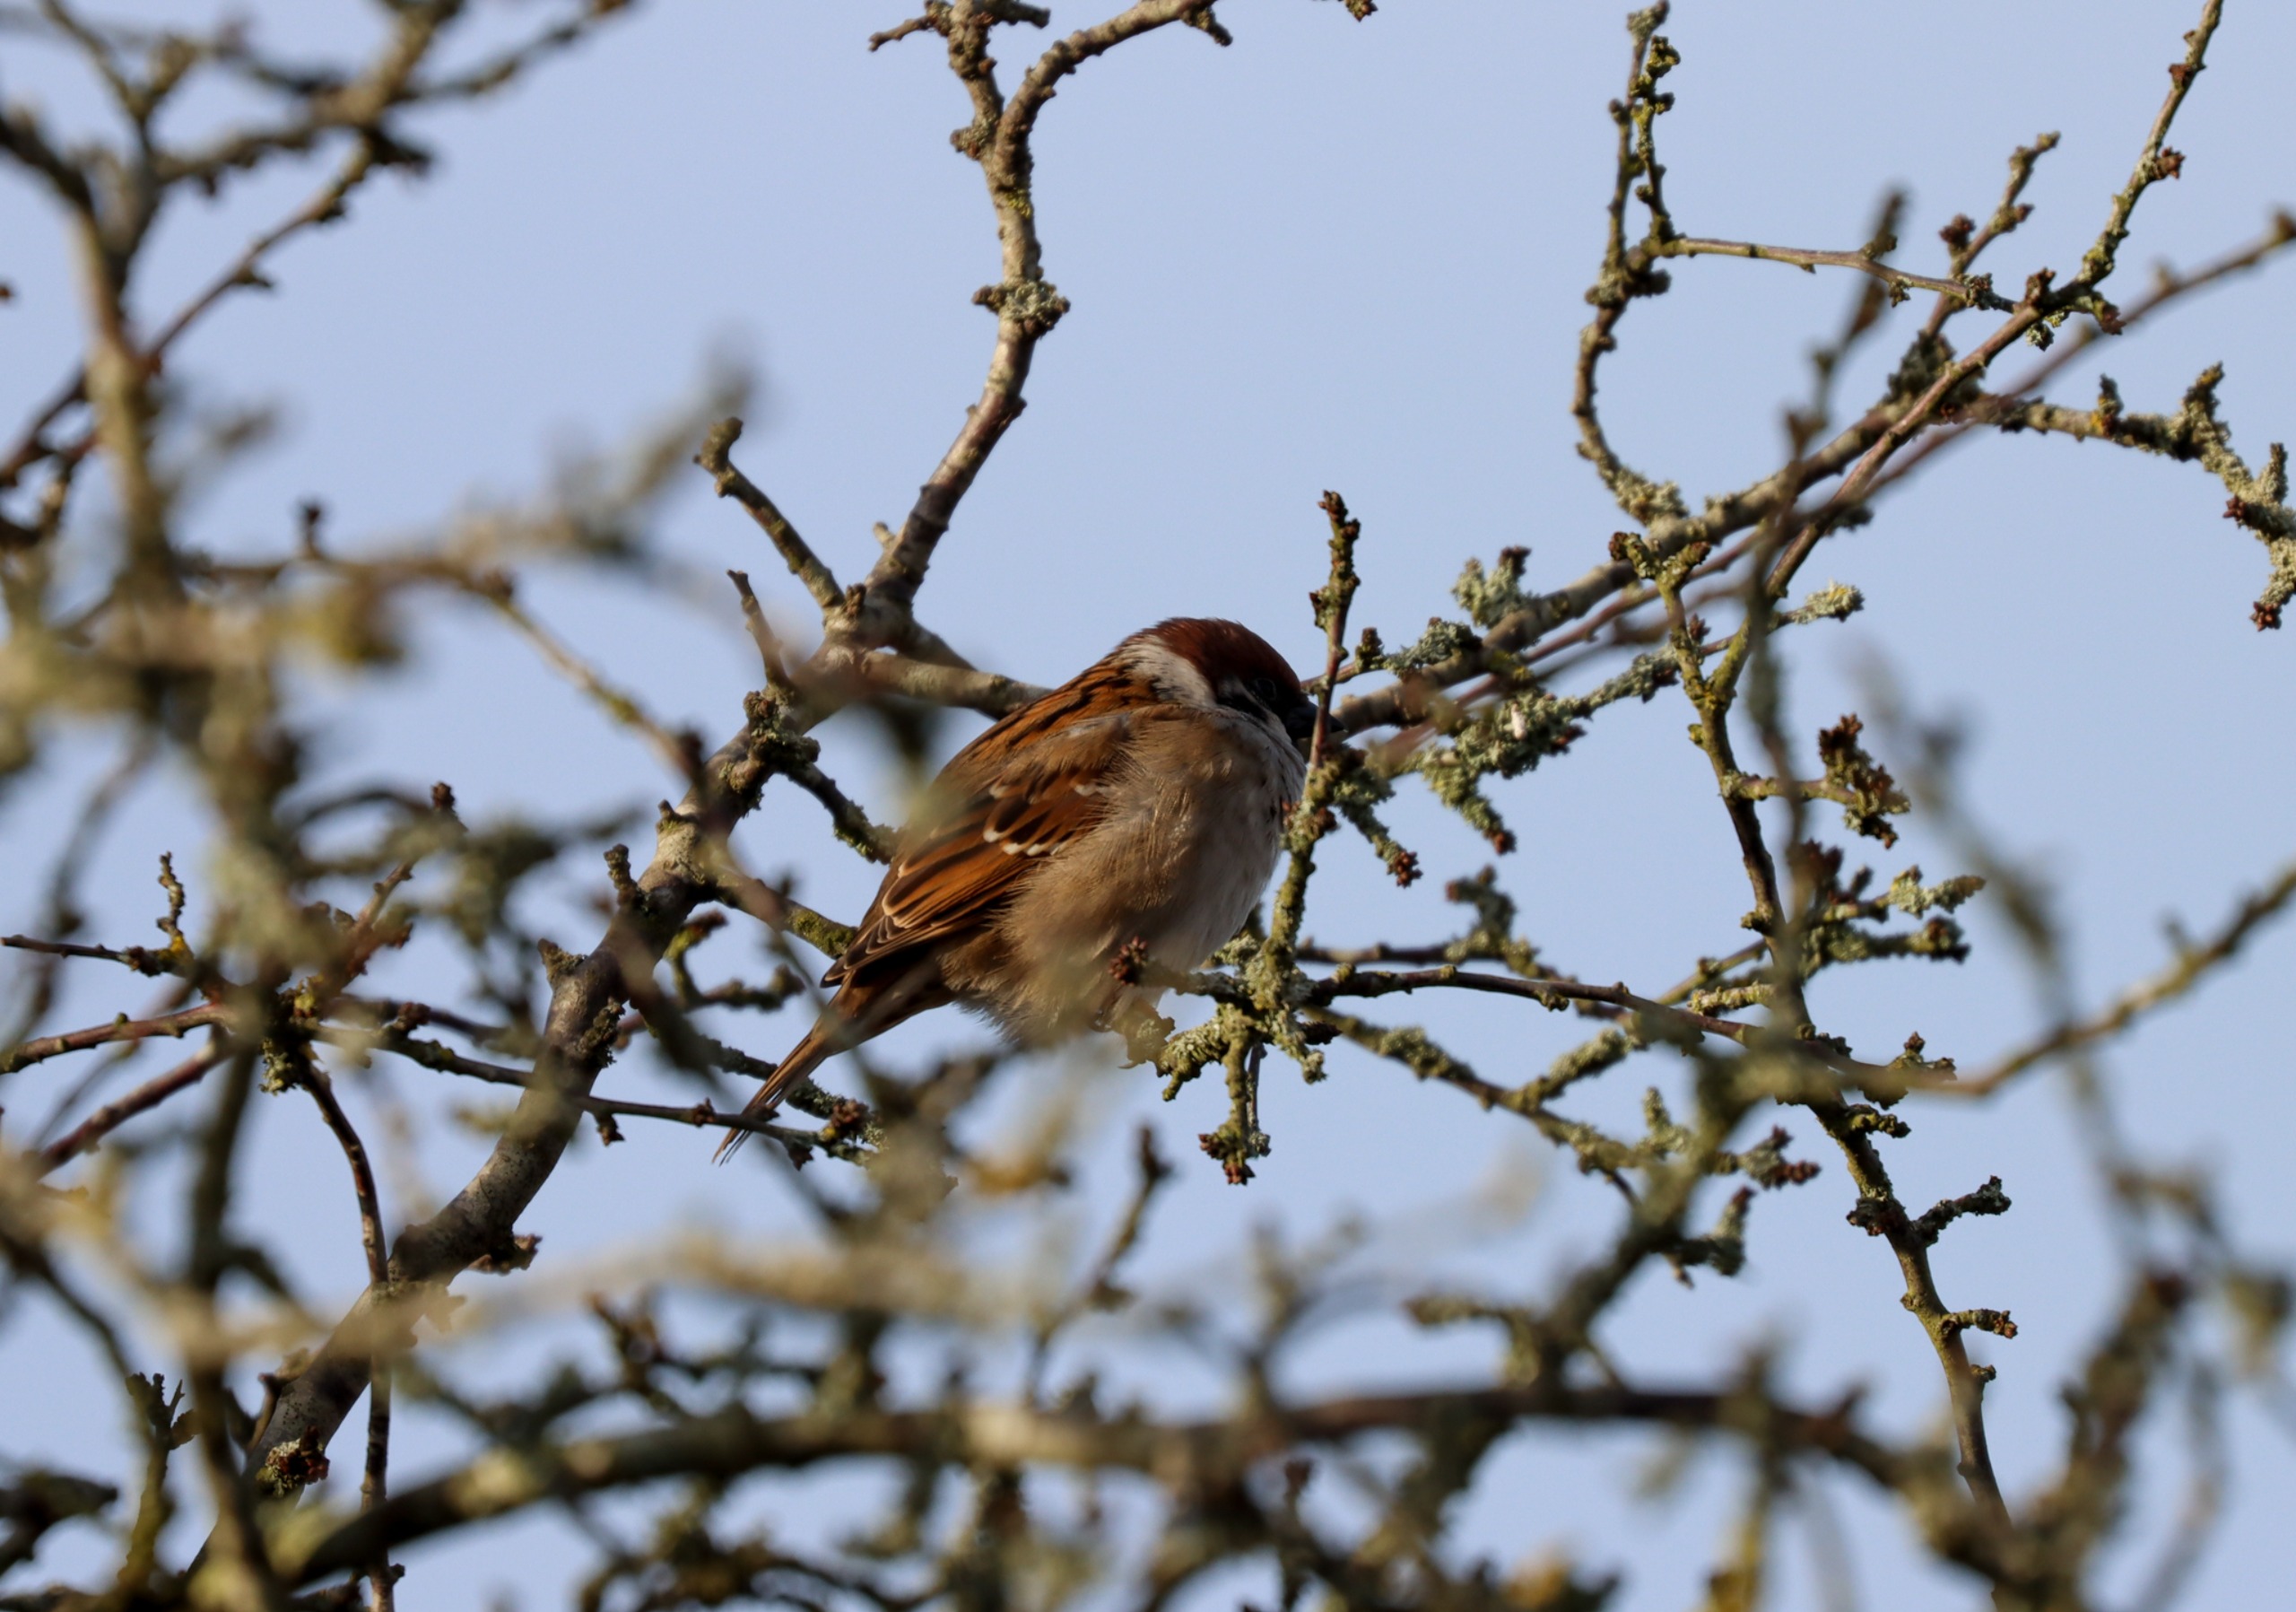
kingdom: Animalia
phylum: Chordata
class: Aves
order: Passeriformes
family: Passeridae
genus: Passer
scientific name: Passer montanus
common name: Skovspurv
